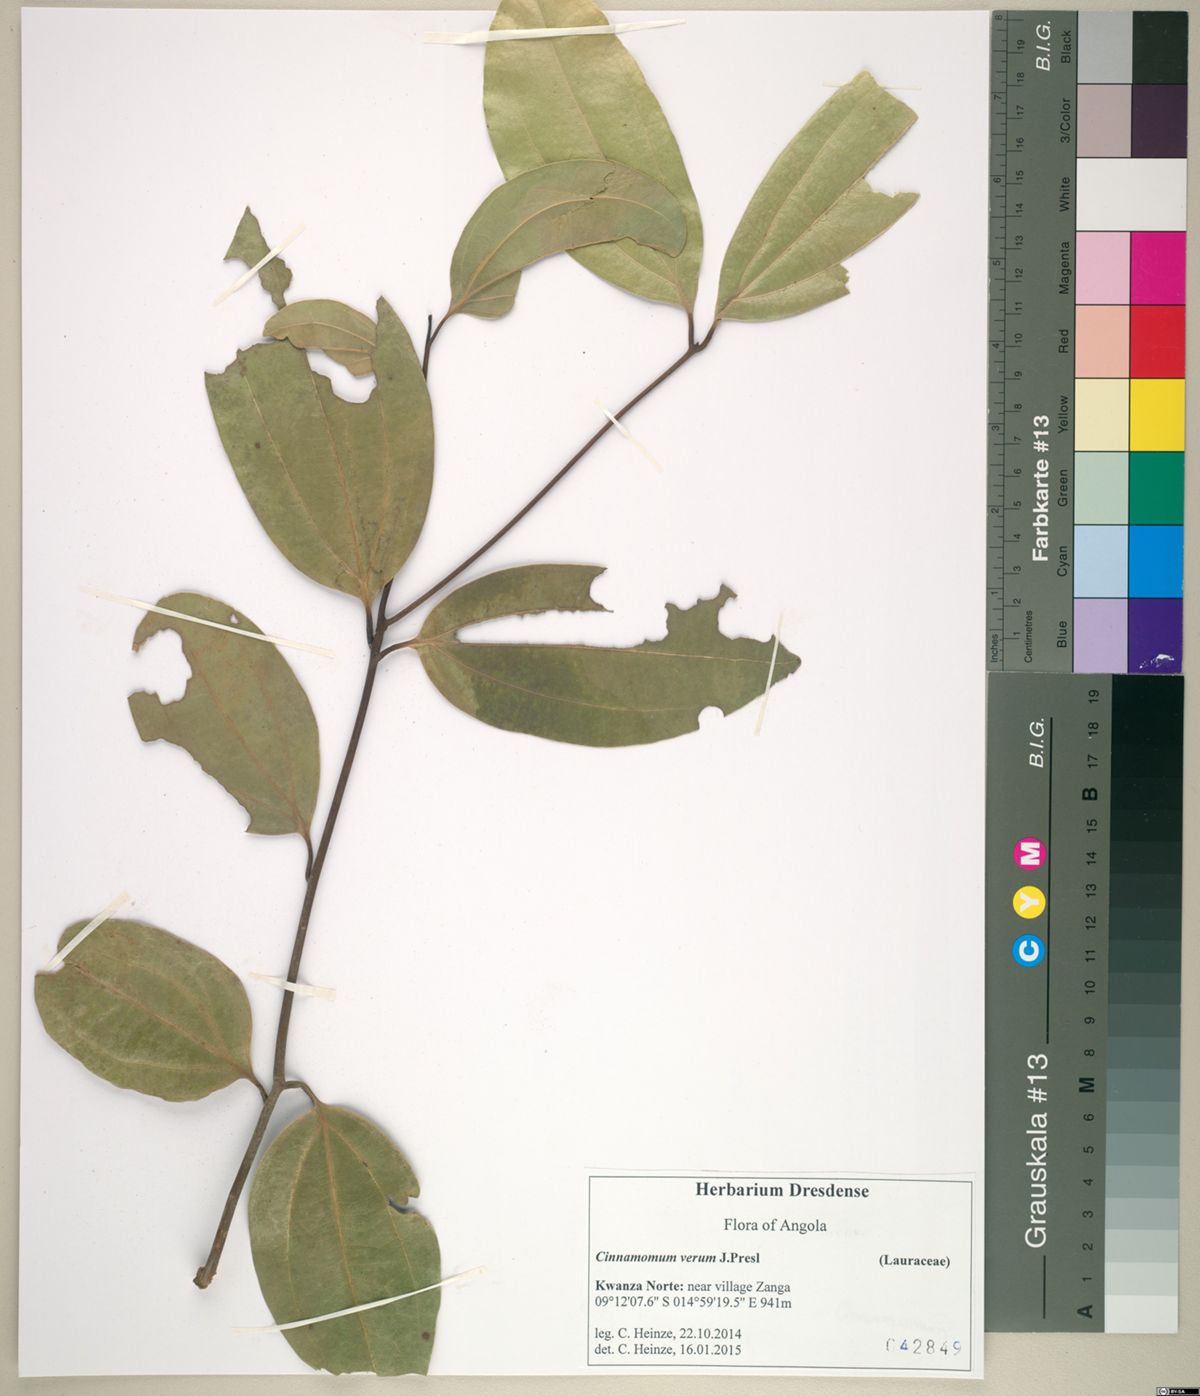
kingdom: Plantae
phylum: Tracheophyta
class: Magnoliopsida
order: Laurales
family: Lauraceae
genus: Cinnamomum
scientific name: Cinnamomum verum
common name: Cinnamon
